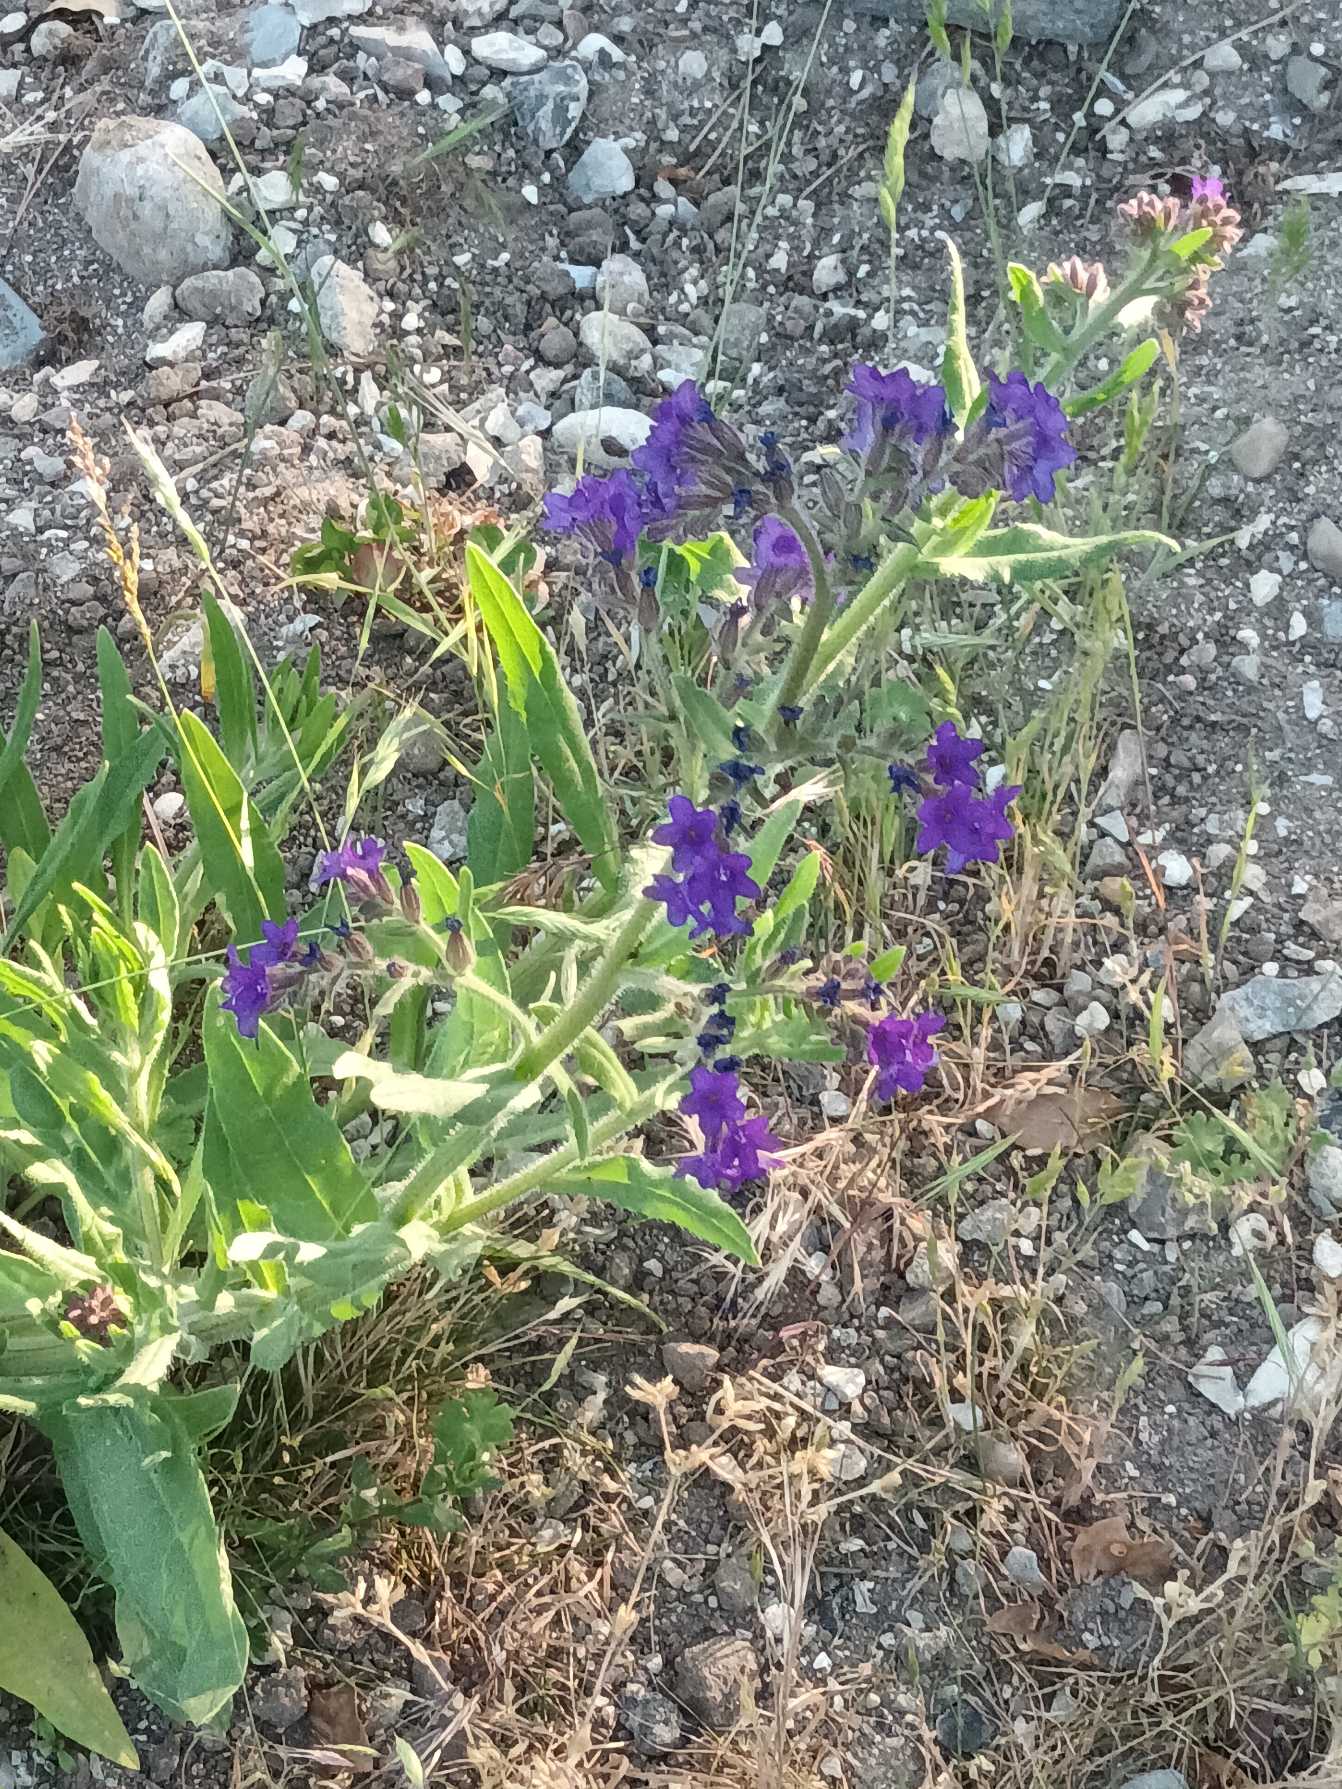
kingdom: Plantae
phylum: Tracheophyta
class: Magnoliopsida
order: Boraginales
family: Boraginaceae
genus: Anchusa
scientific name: Anchusa officinalis
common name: Læge-oksetunge
